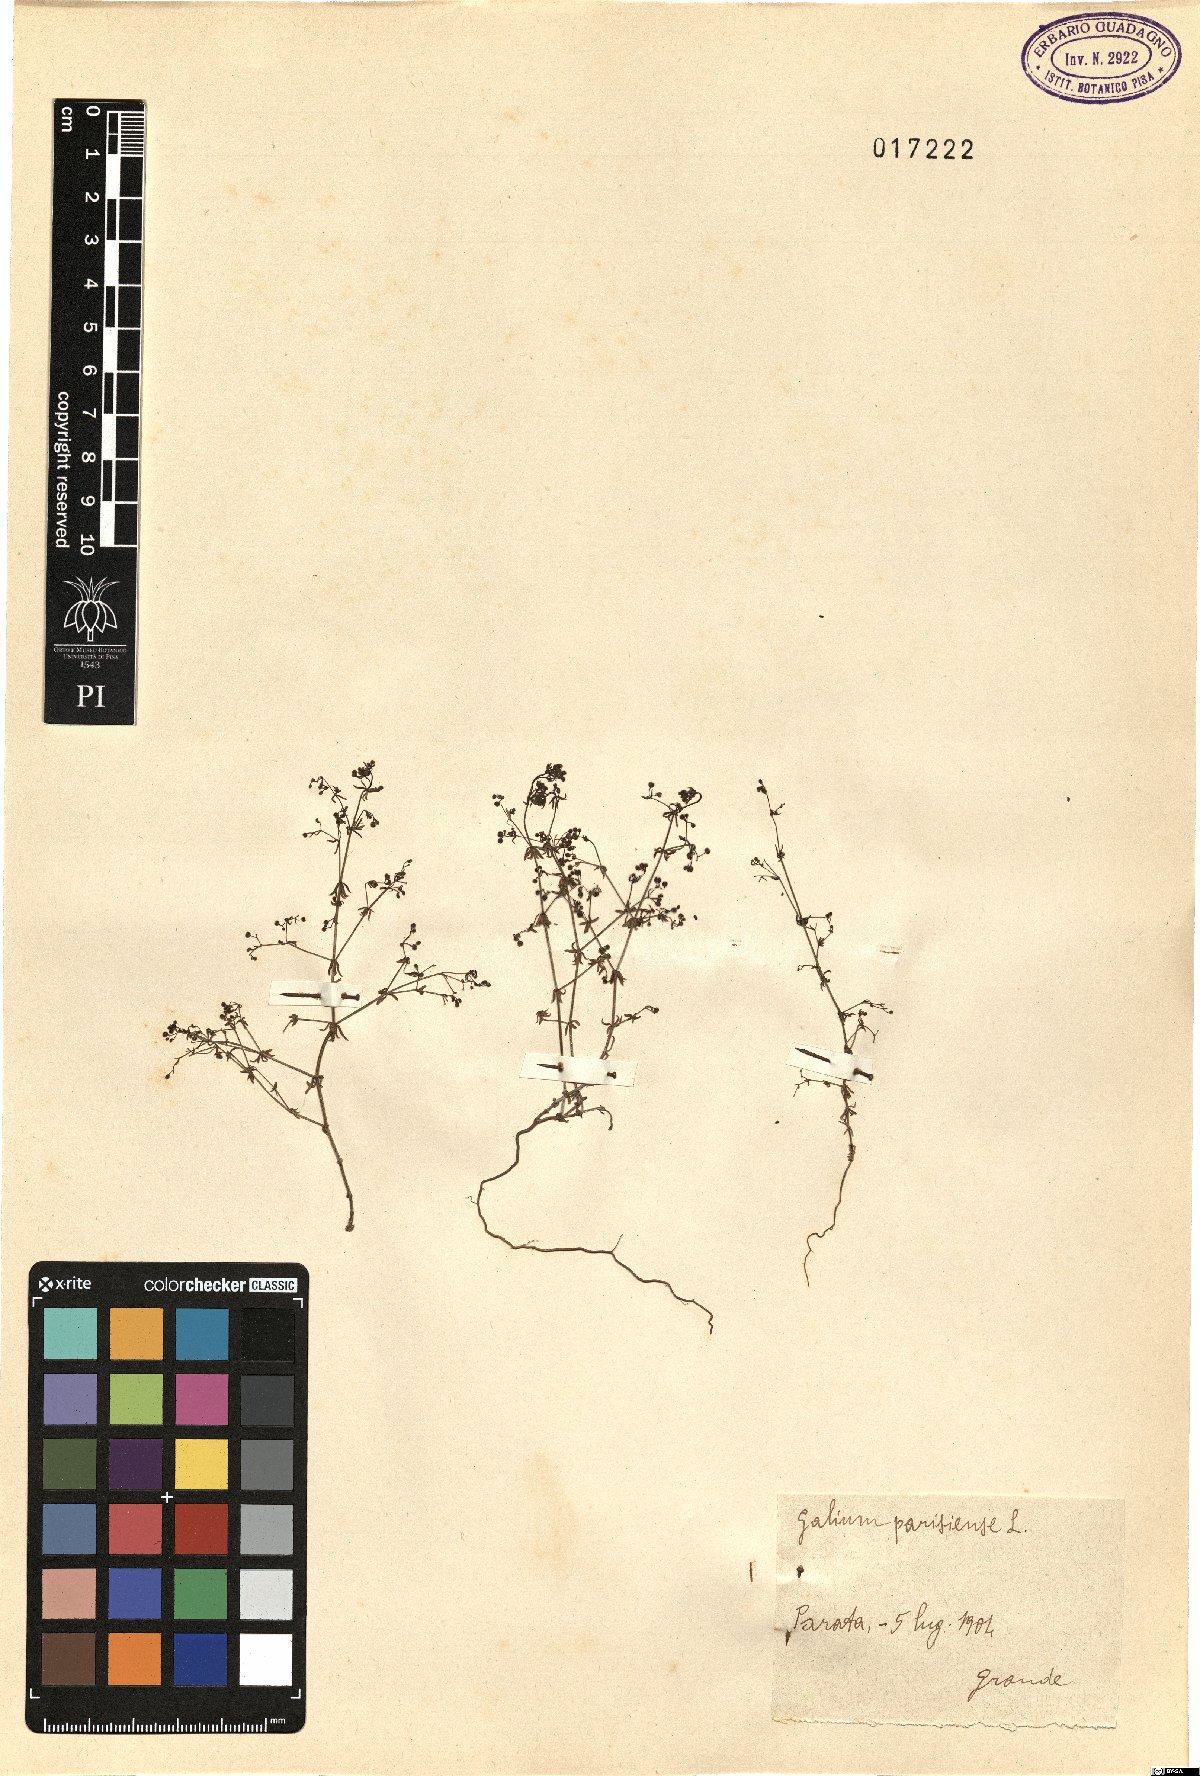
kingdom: Plantae
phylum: Tracheophyta
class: Magnoliopsida
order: Gentianales
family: Rubiaceae
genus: Galium
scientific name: Galium parisiense
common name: Wall bedstraw
